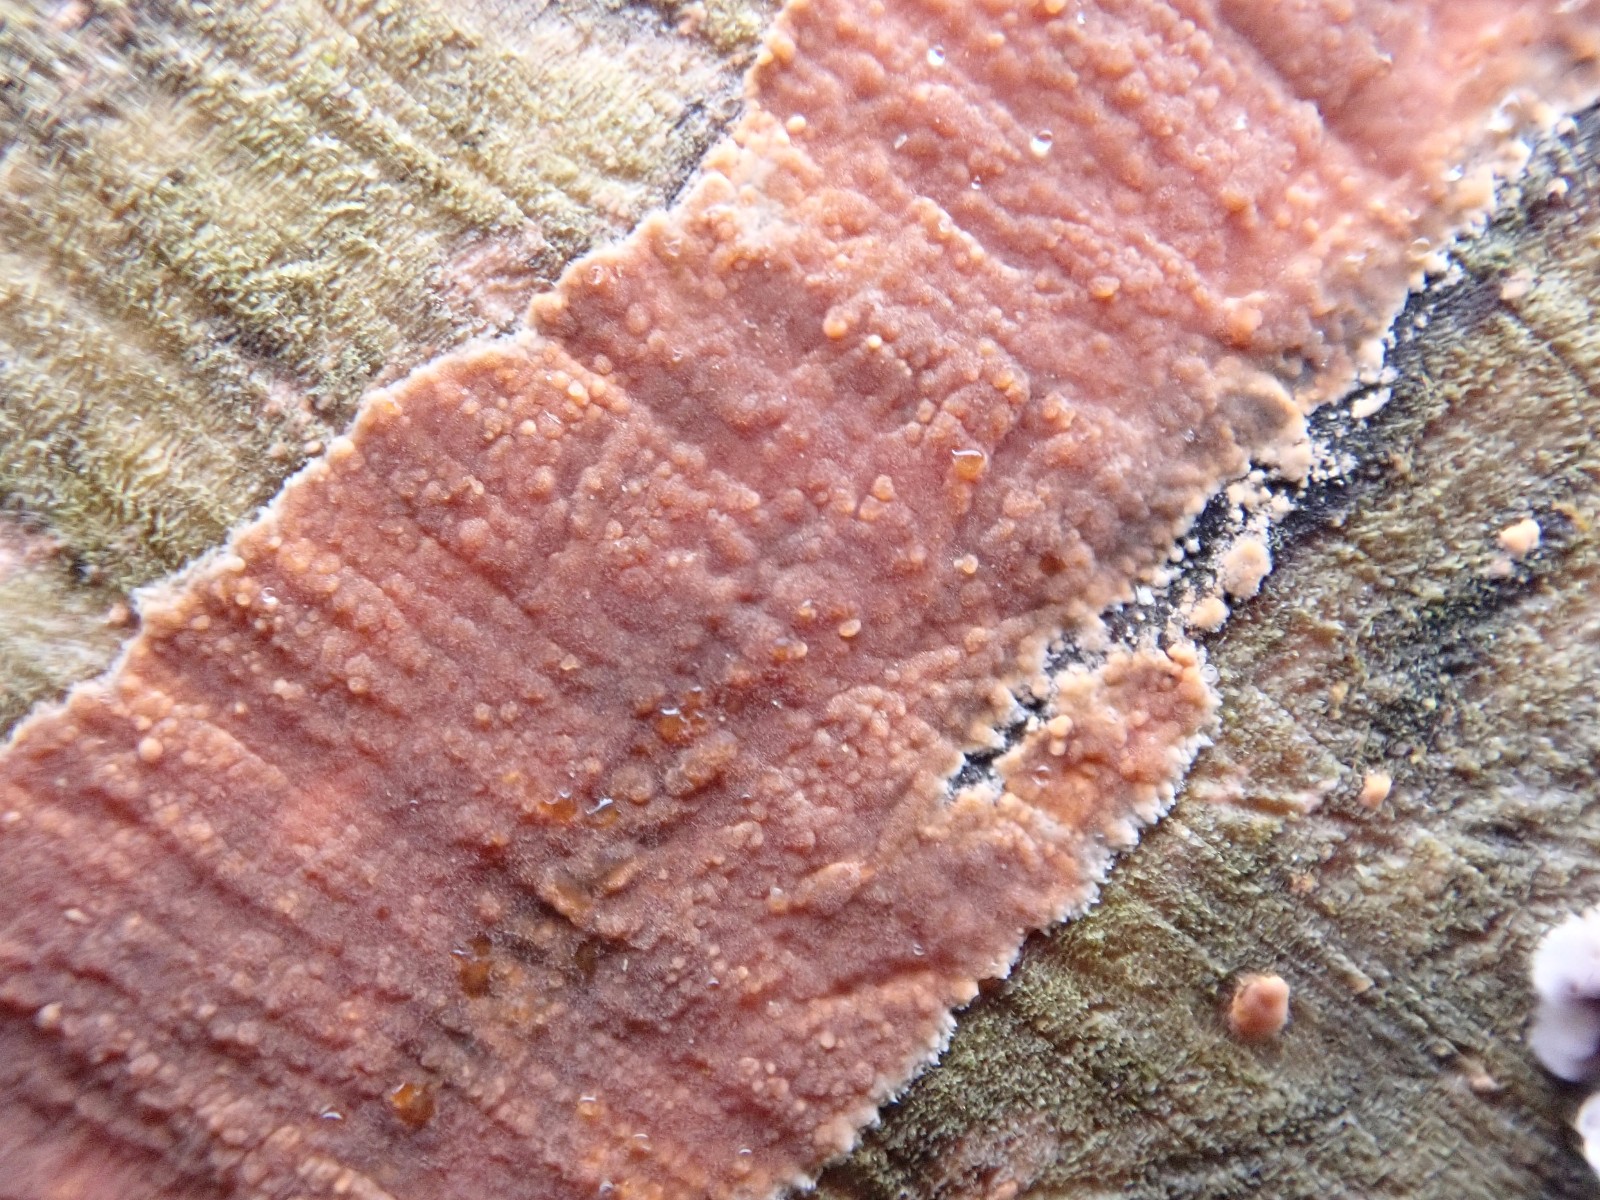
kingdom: Fungi
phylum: Basidiomycota
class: Agaricomycetes
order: Russulales
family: Peniophoraceae
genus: Peniophora
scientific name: Peniophora incarnata
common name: laksefarvet voksskind
